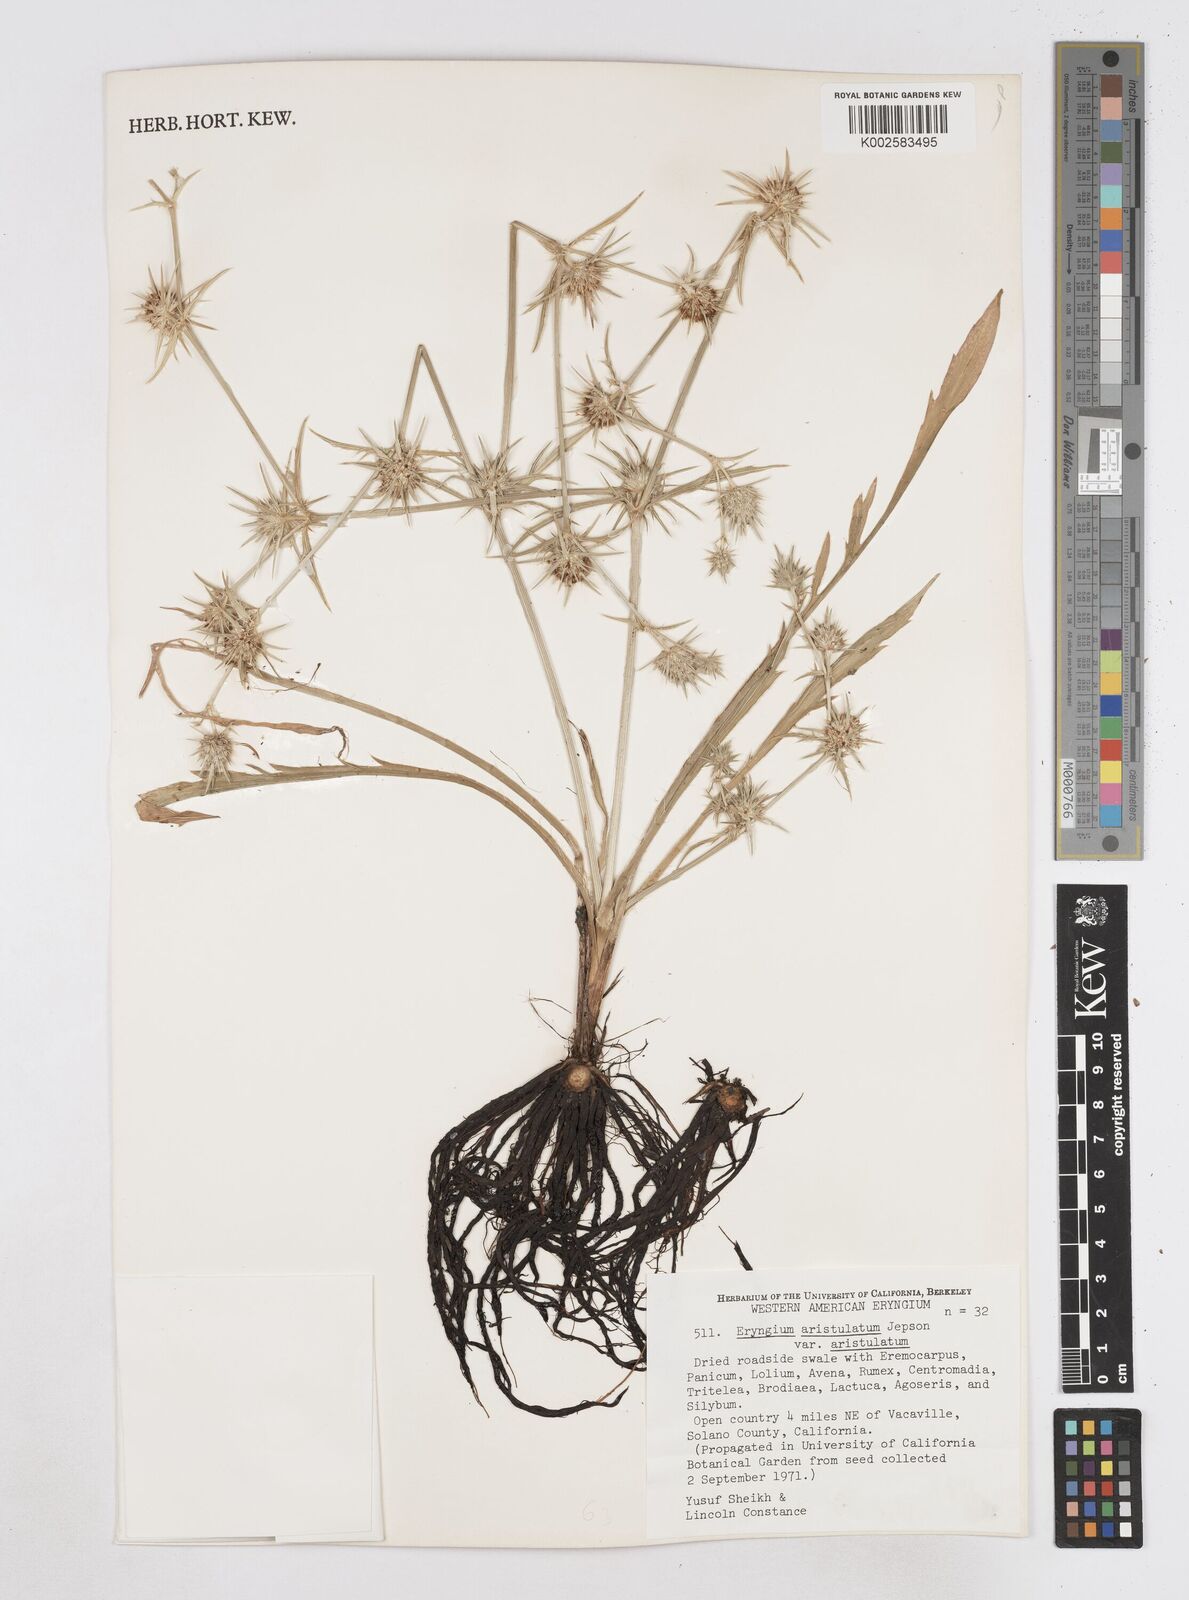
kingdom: Plantae
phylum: Tracheophyta
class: Magnoliopsida
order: Apiales
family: Apiaceae
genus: Eryngium
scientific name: Eryngium aristulatum
